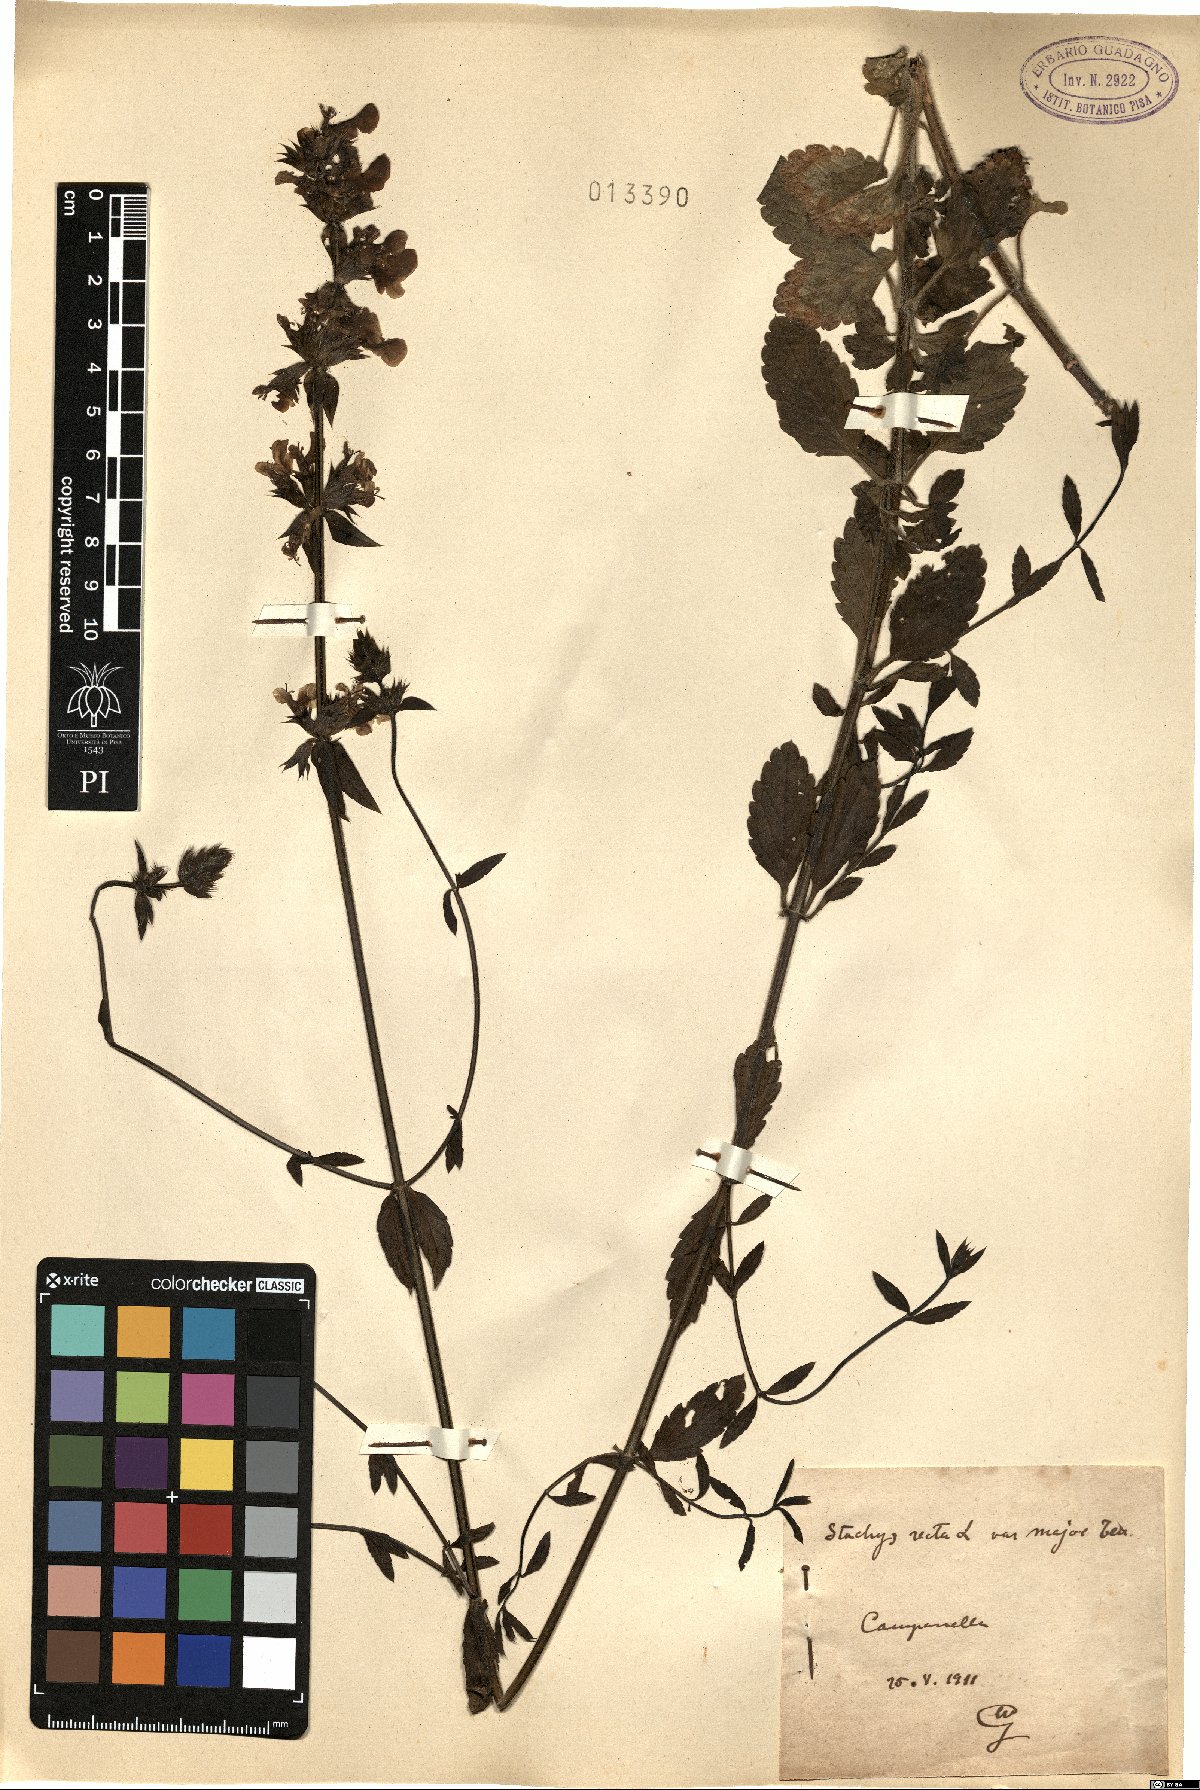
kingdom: Plantae
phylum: Tracheophyta
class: Magnoliopsida
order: Lamiales
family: Lamiaceae
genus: Stachys
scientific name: Stachys recta
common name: Perennial yellow-woundwort
